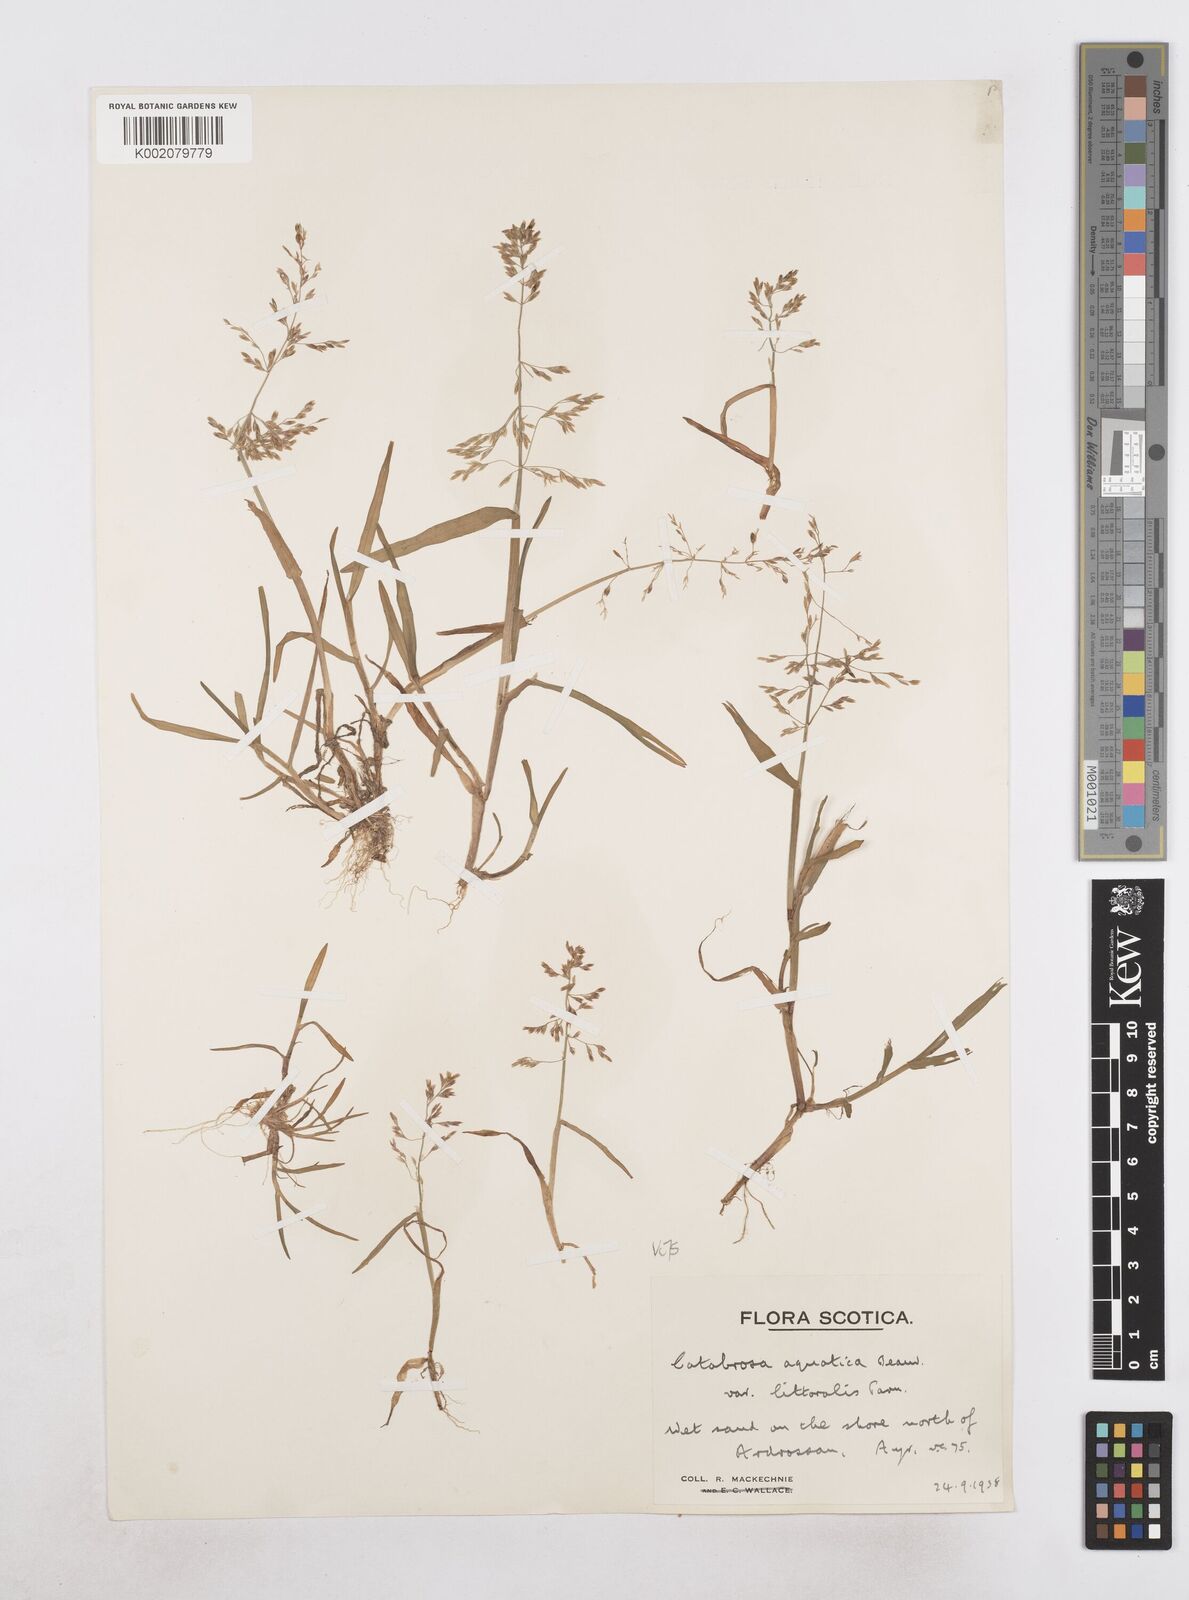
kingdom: Plantae
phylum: Tracheophyta
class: Liliopsida
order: Poales
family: Poaceae
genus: Catabrosa
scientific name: Catabrosa aquatica
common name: Whorl-grass
